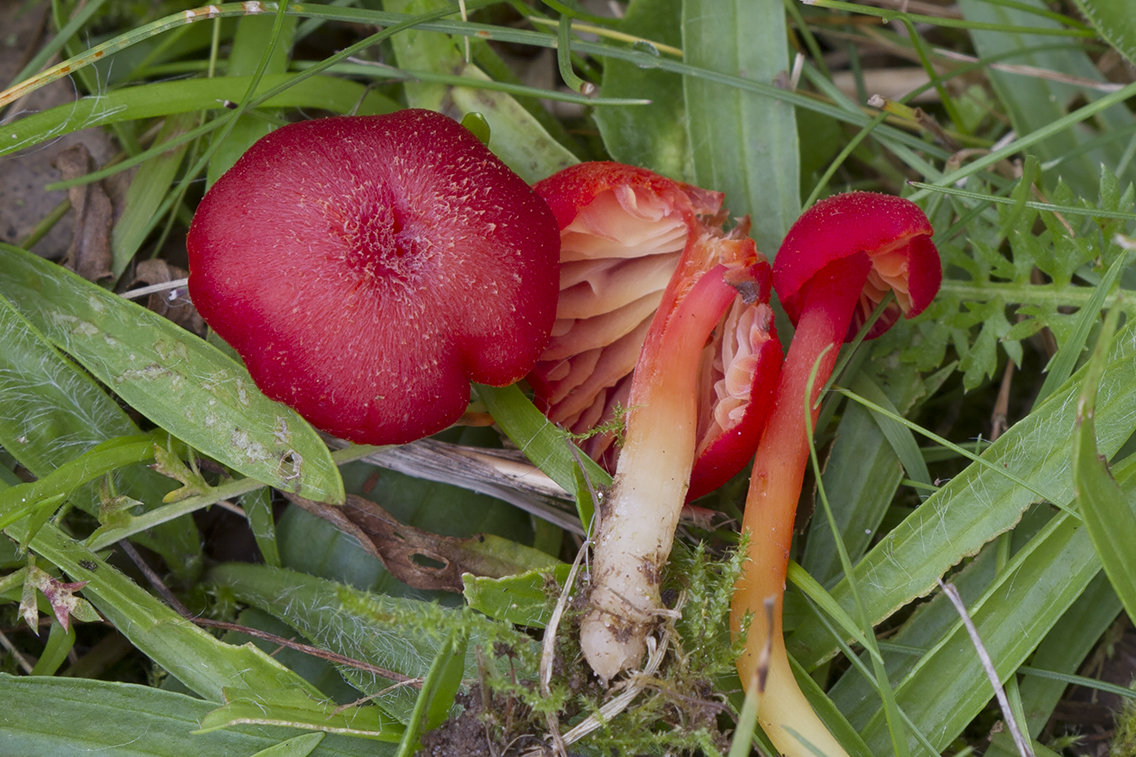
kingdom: Fungi
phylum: Basidiomycota
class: Agaricomycetes
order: Agaricales
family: Hygrophoraceae
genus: Hygrocybe
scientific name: Hygrocybe helobia
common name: hvidløgs-vokshat
